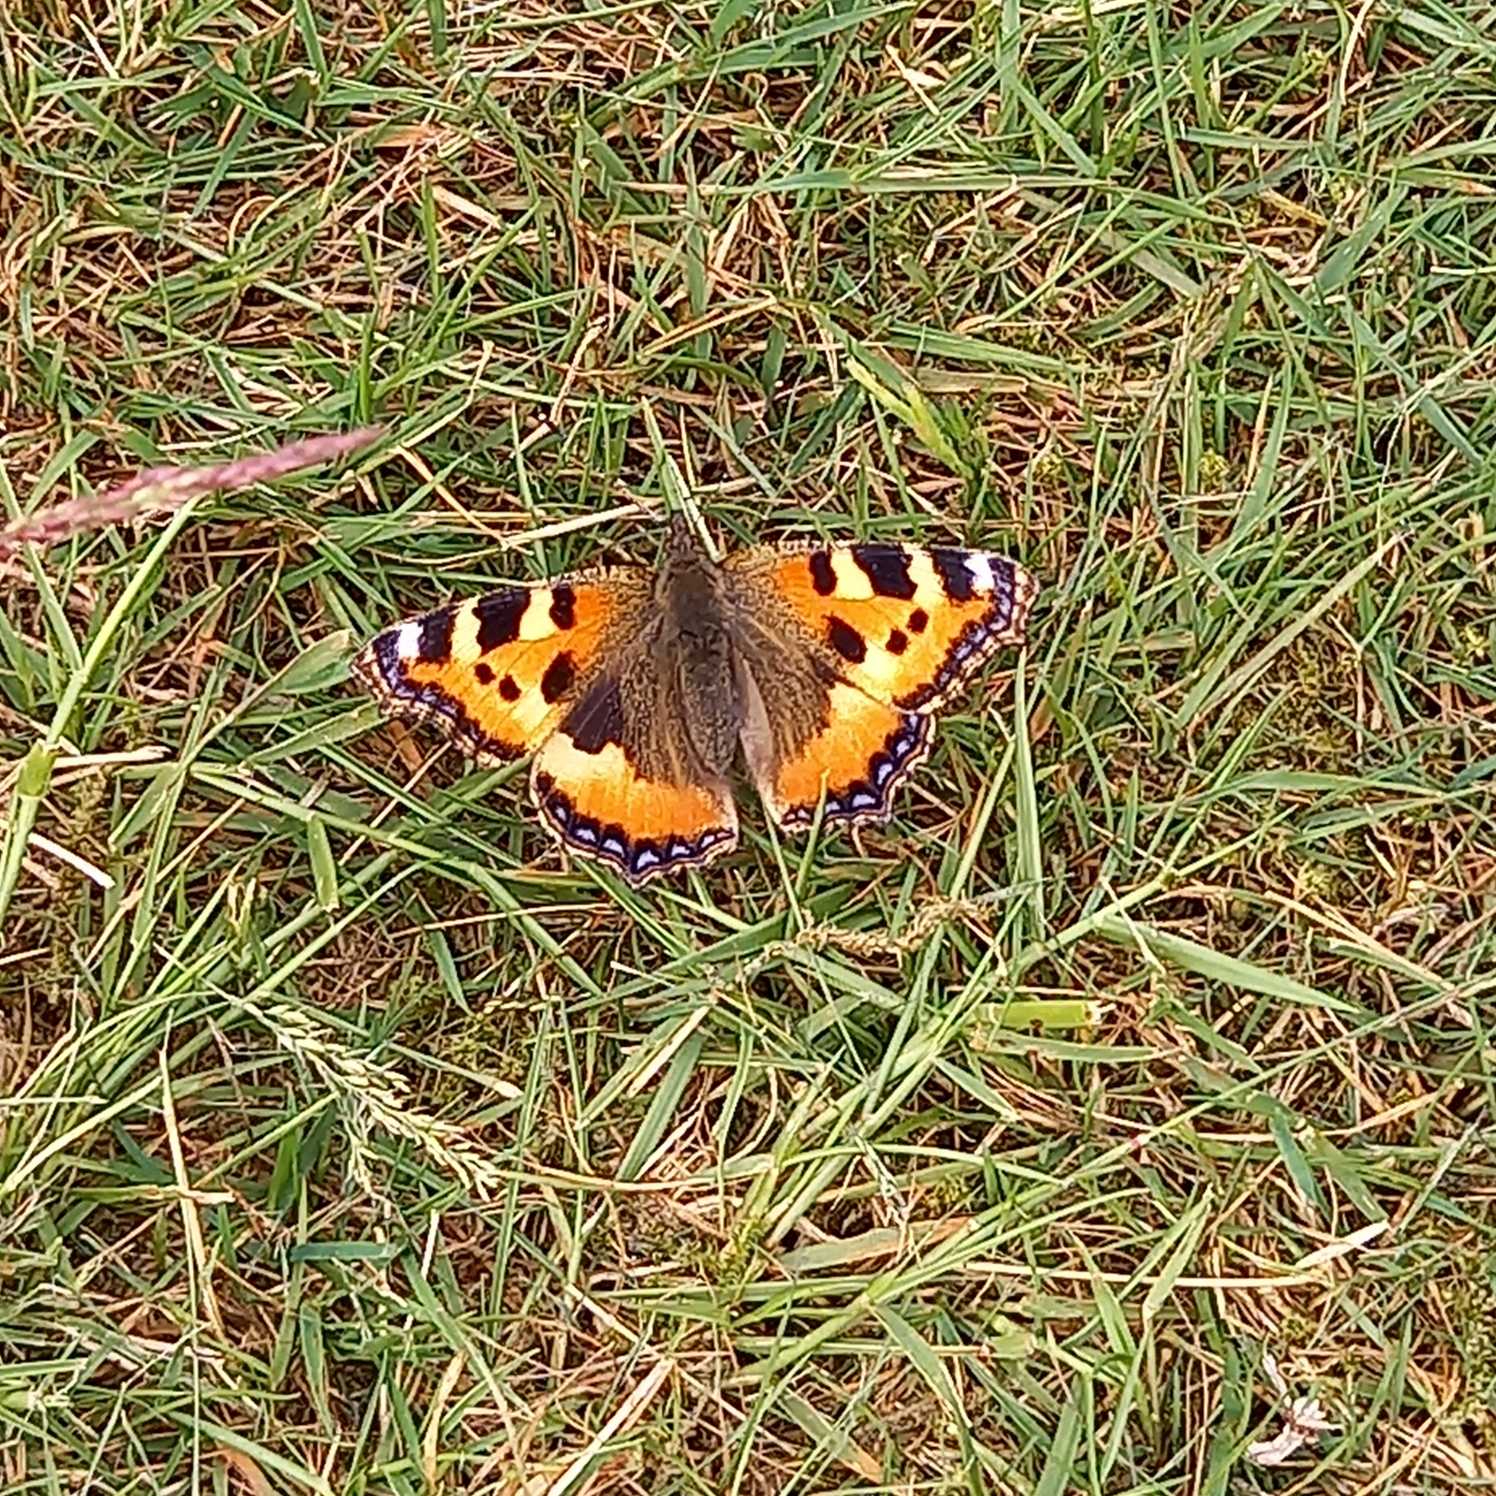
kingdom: Animalia
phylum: Arthropoda
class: Insecta
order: Lepidoptera
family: Nymphalidae
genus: Aglais
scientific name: Aglais urticae
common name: Nældens takvinge
